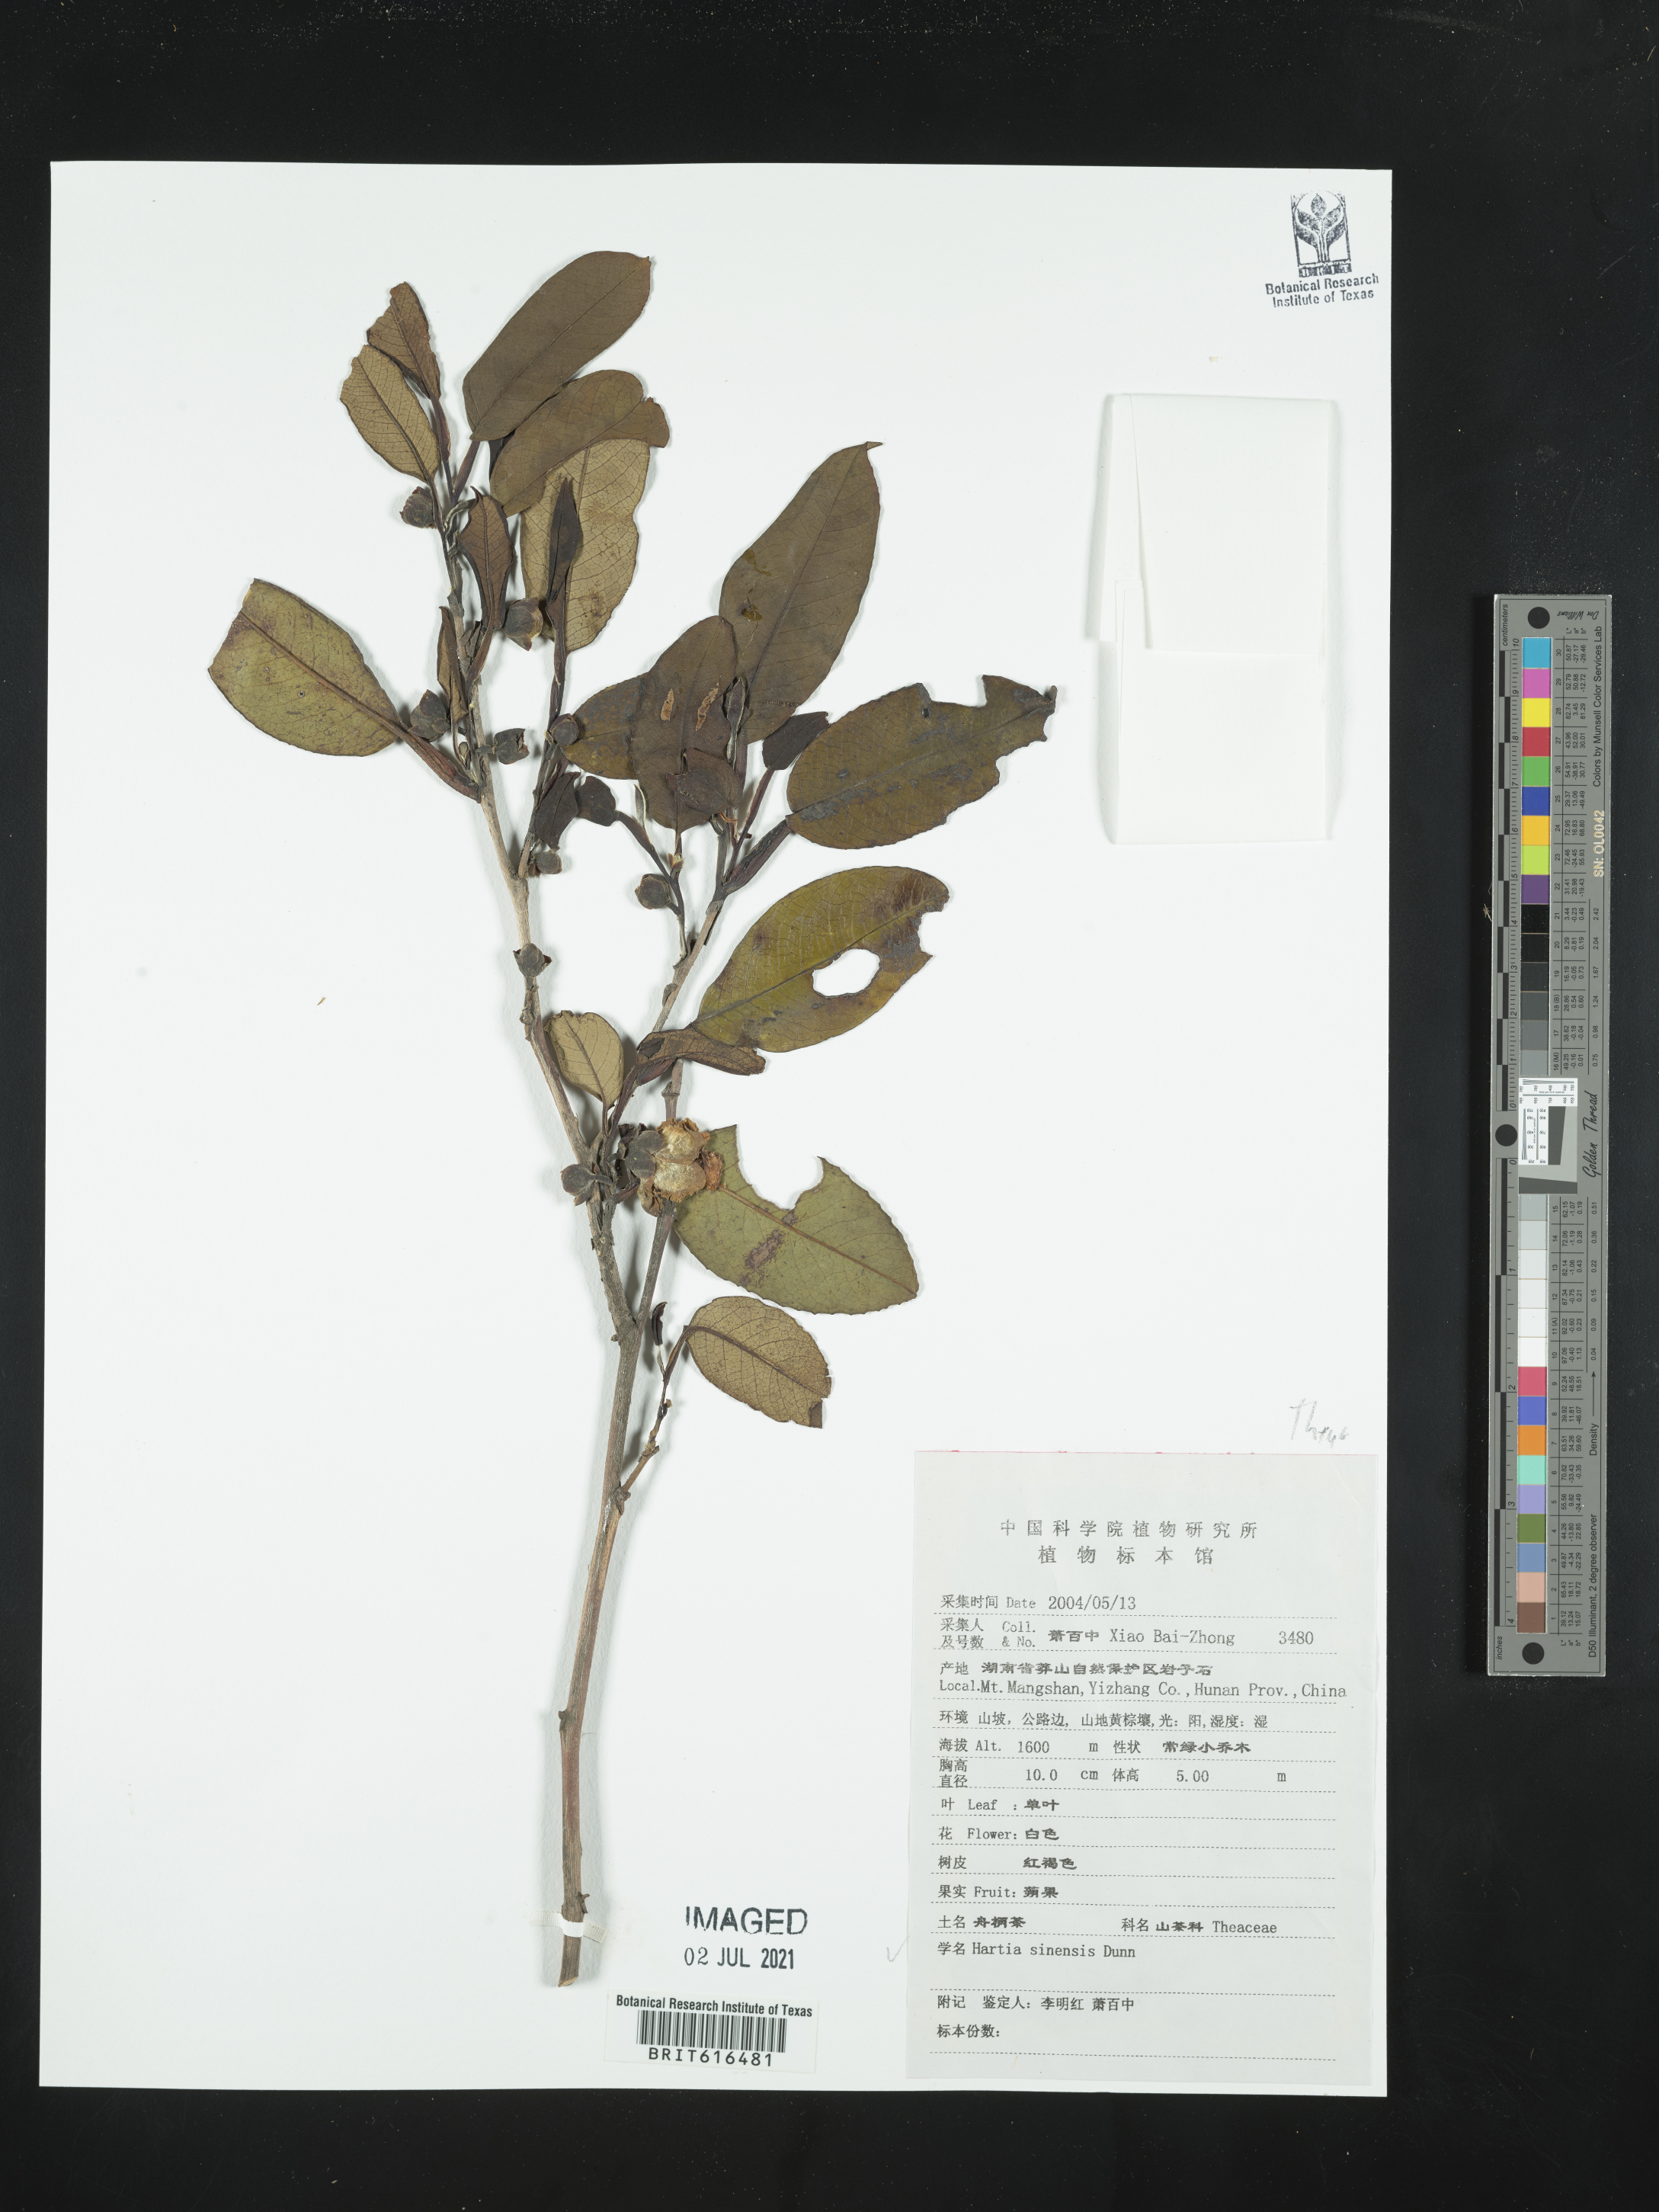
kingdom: Plantae
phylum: Tracheophyta
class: Magnoliopsida
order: Ericales
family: Theaceae
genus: Stewartia
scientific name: Stewartia pteropetiolata
